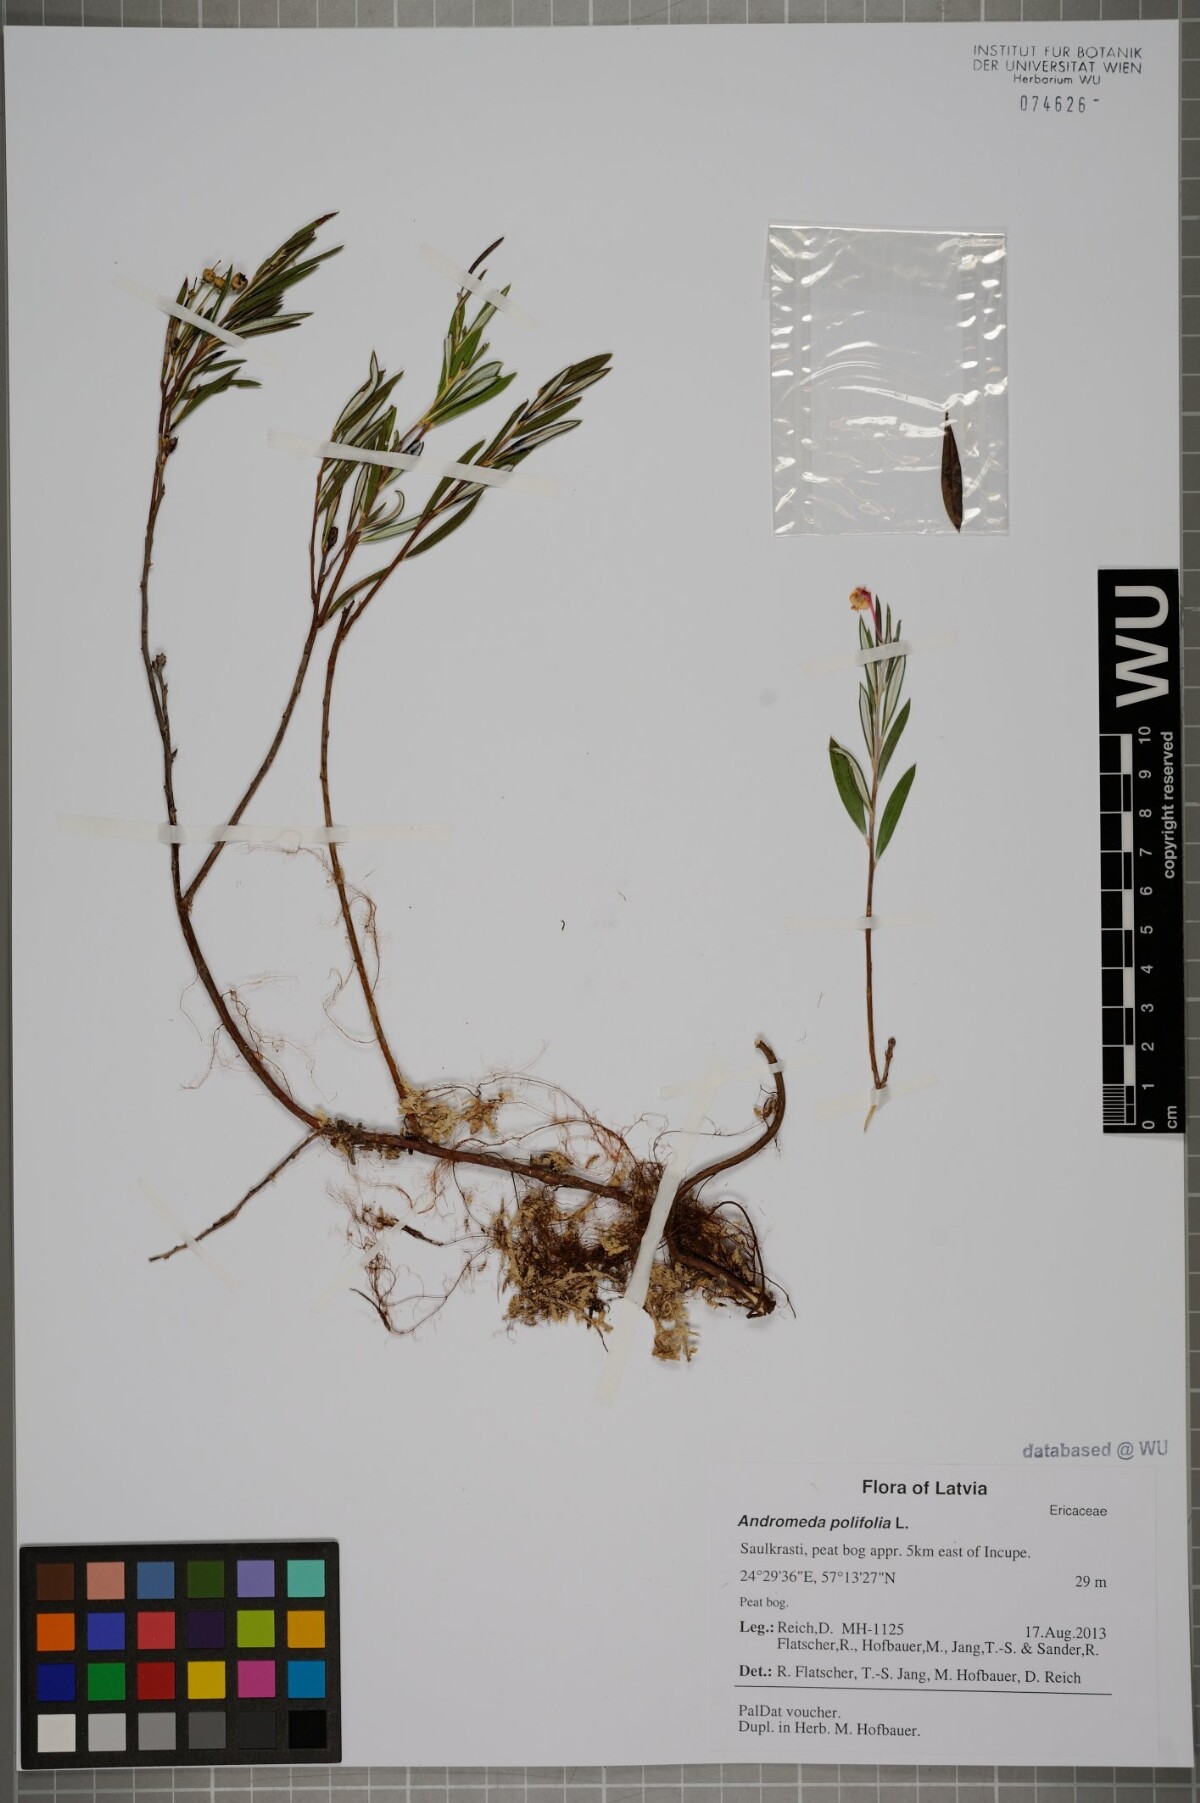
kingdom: Plantae
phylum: Tracheophyta
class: Magnoliopsida
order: Ericales
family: Ericaceae
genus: Andromeda
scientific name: Andromeda polifolia
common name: Bog-rosemary
